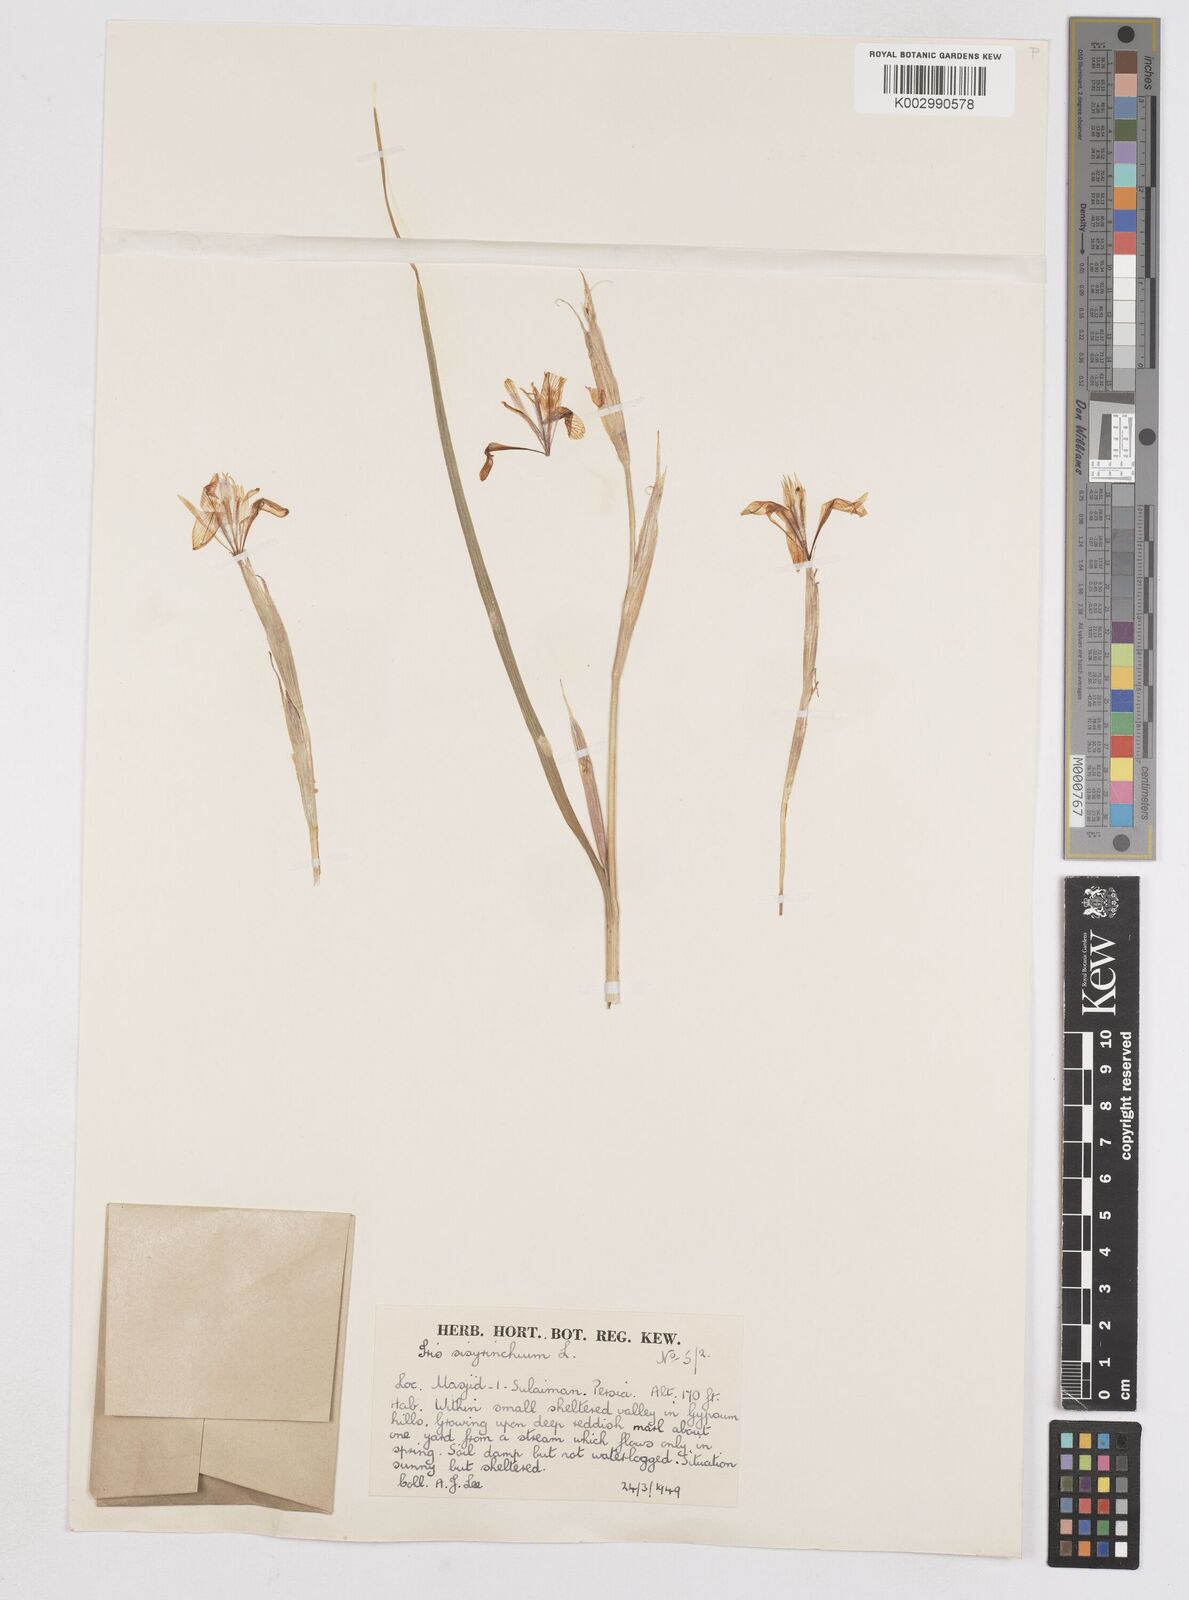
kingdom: Plantae
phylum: Tracheophyta
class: Liliopsida
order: Asparagales
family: Iridaceae
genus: Moraea
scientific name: Moraea sisyrinchium
